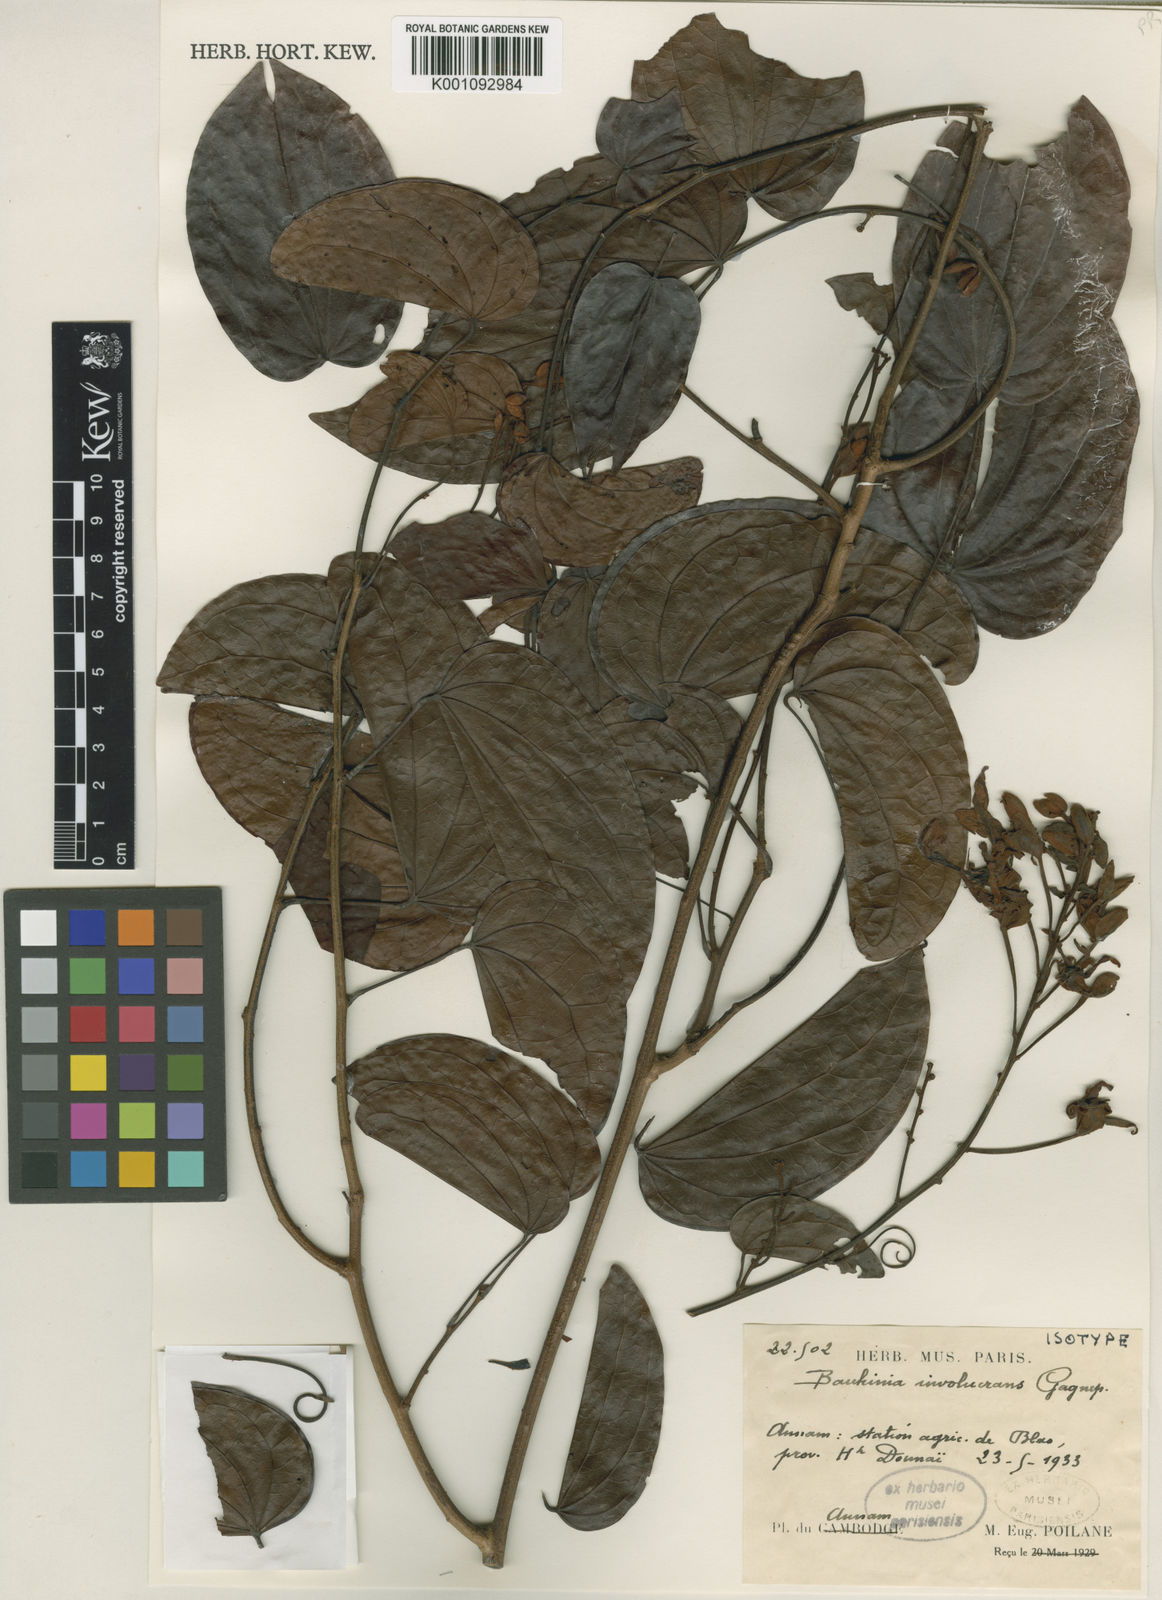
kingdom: Plantae
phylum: Tracheophyta
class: Magnoliopsida
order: Fabales
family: Fabaceae
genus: Bauhinia
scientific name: Bauhinia involucrans
